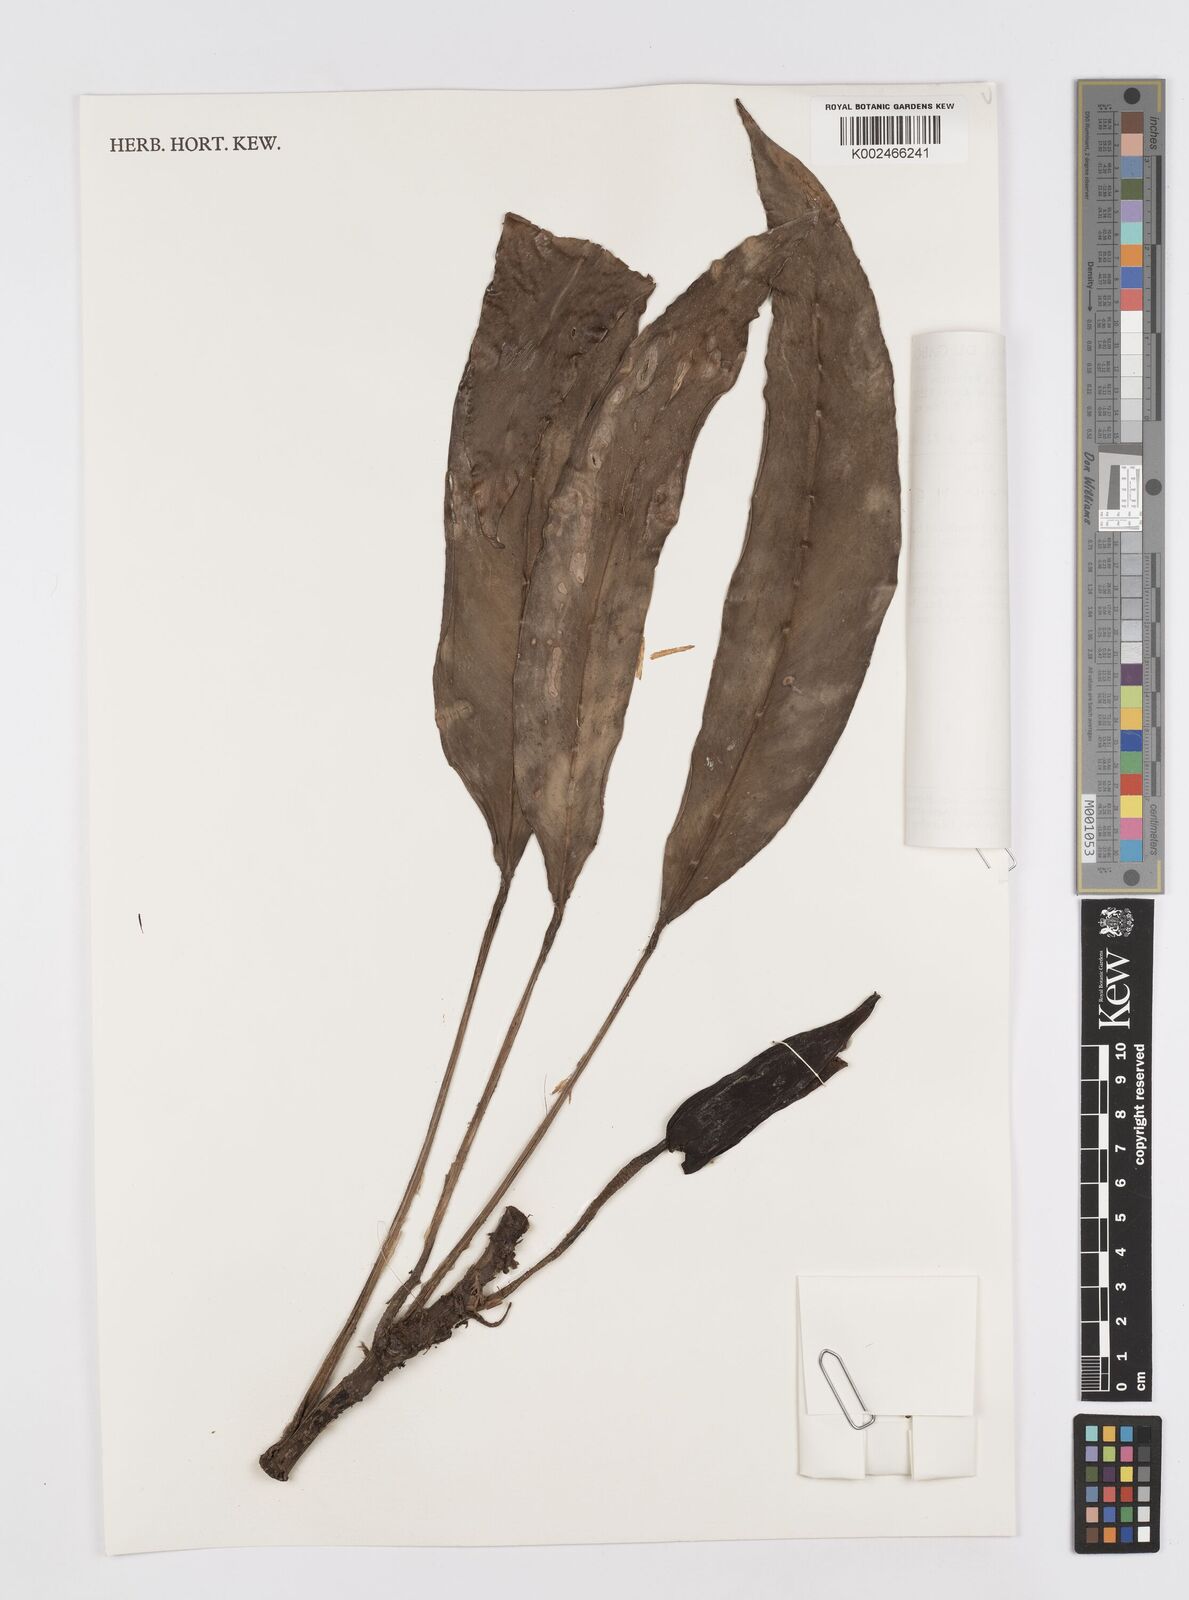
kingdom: Plantae
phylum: Tracheophyta
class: Liliopsida
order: Alismatales
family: Araceae
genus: Rhaphidophora
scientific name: Rhaphidophora africana
